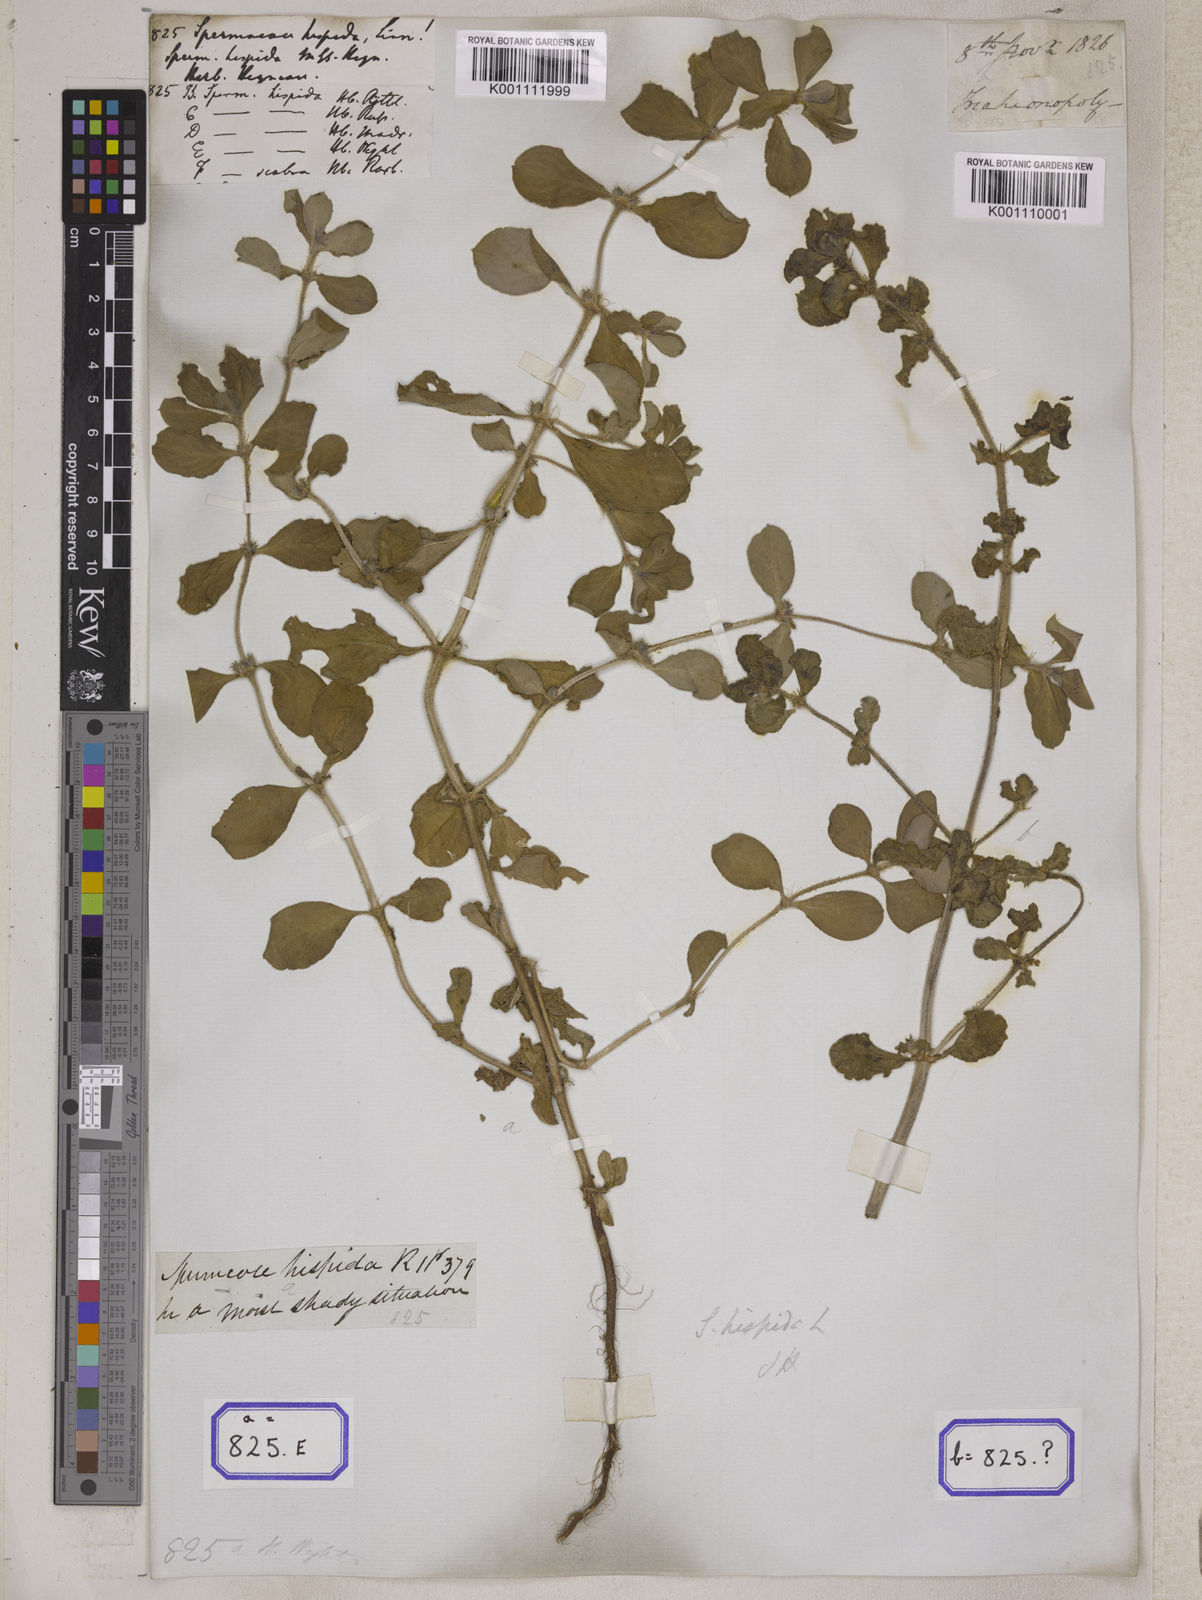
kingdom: Plantae
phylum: Tracheophyta
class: Magnoliopsida
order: Gentianales
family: Rubiaceae
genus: Spermacoce
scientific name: Spermacoce hispida
